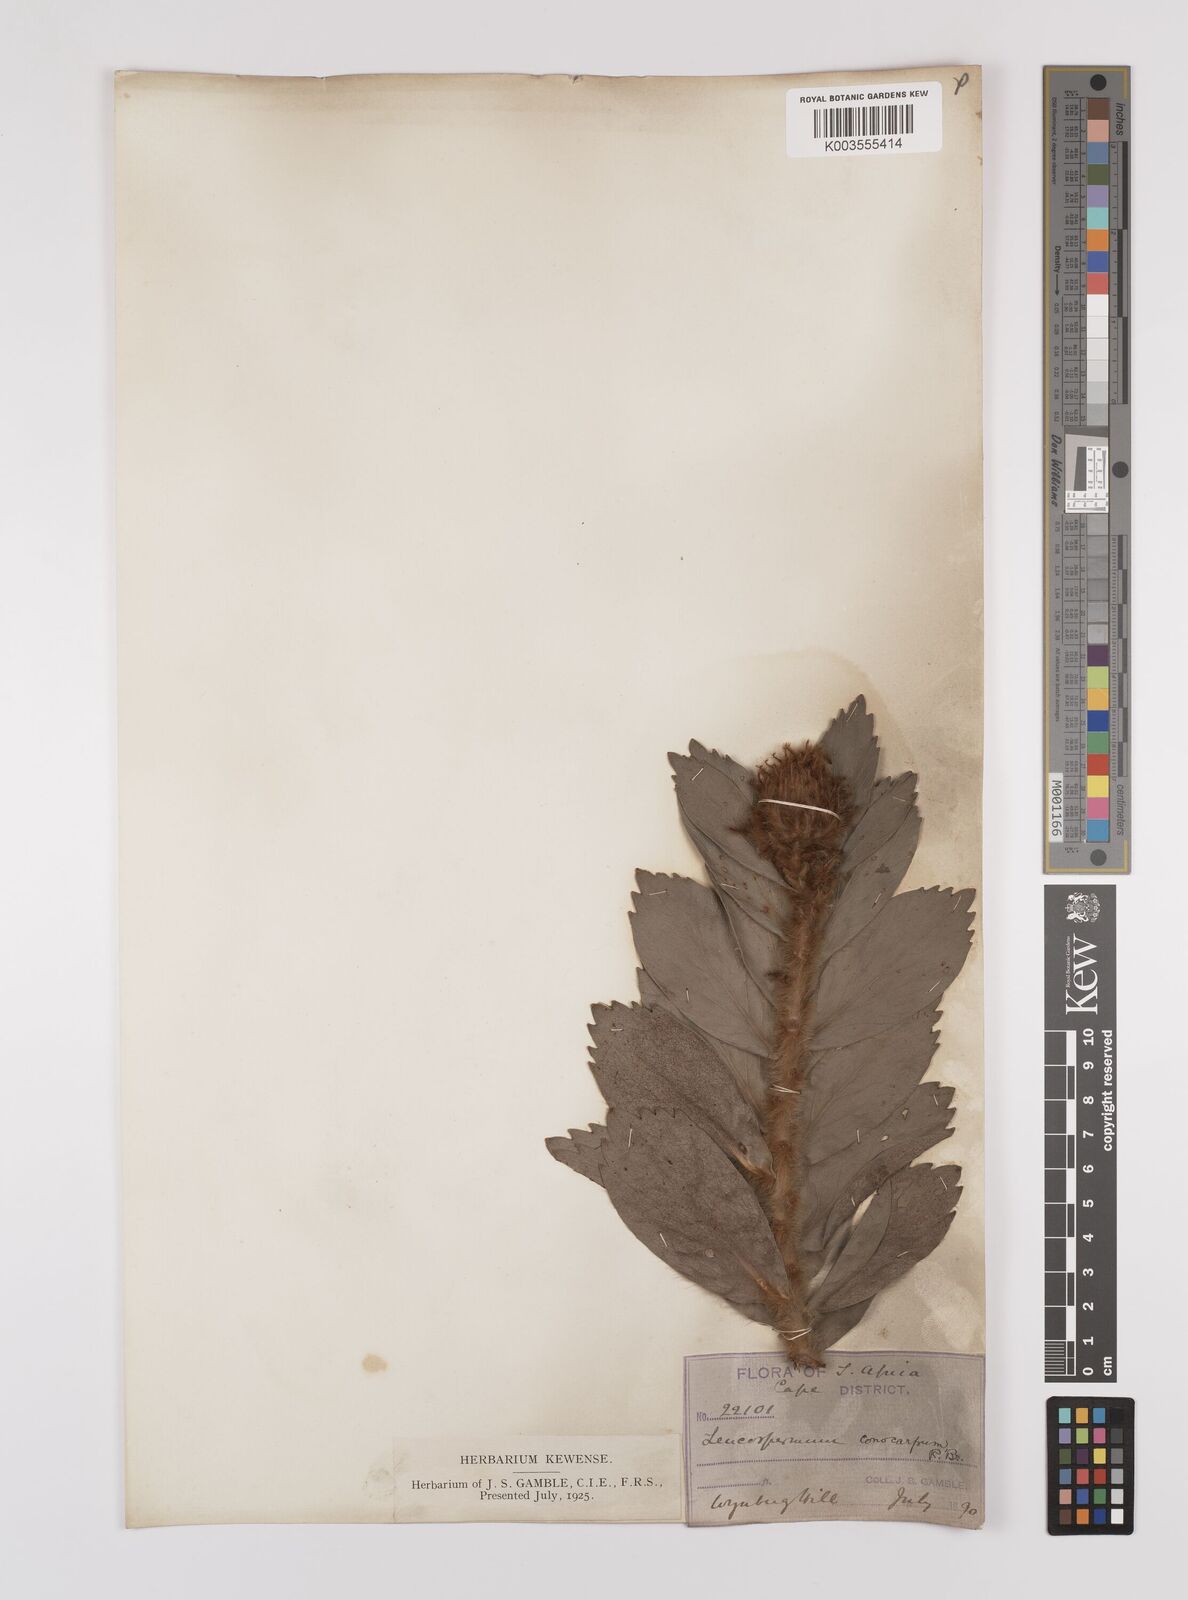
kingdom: Plantae
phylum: Tracheophyta
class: Magnoliopsida
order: Proteales
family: Proteaceae
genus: Leucospermum
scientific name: Leucospermum conocarpodendron
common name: Tree pincushion
